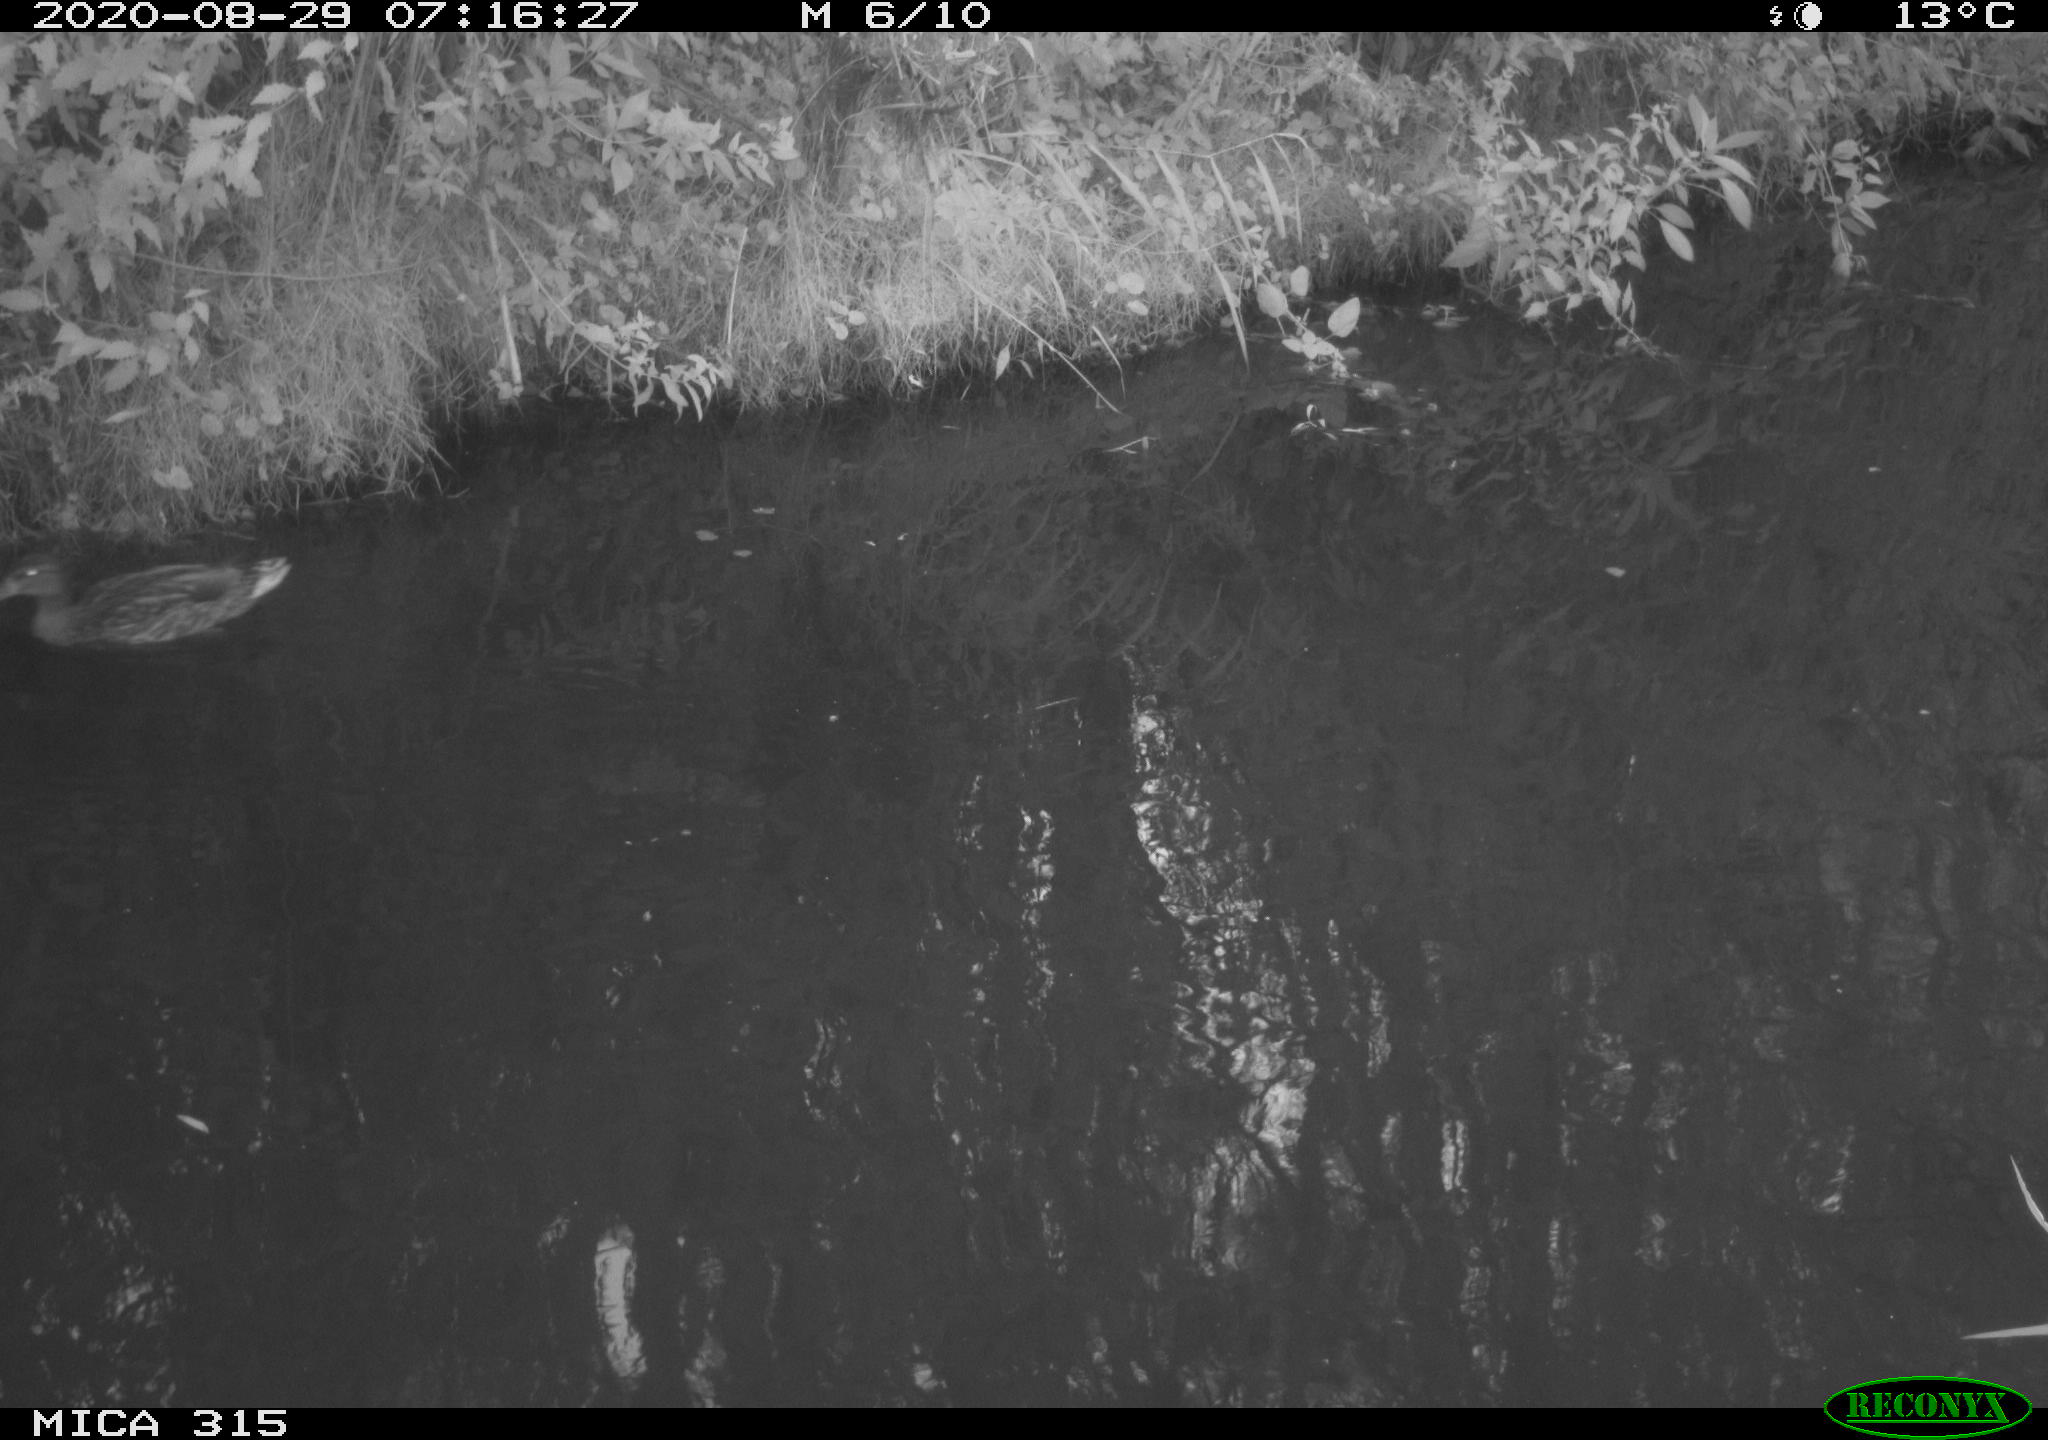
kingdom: Animalia
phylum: Chordata
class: Aves
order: Anseriformes
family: Anatidae
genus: Anas
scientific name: Anas platyrhynchos
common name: Mallard
